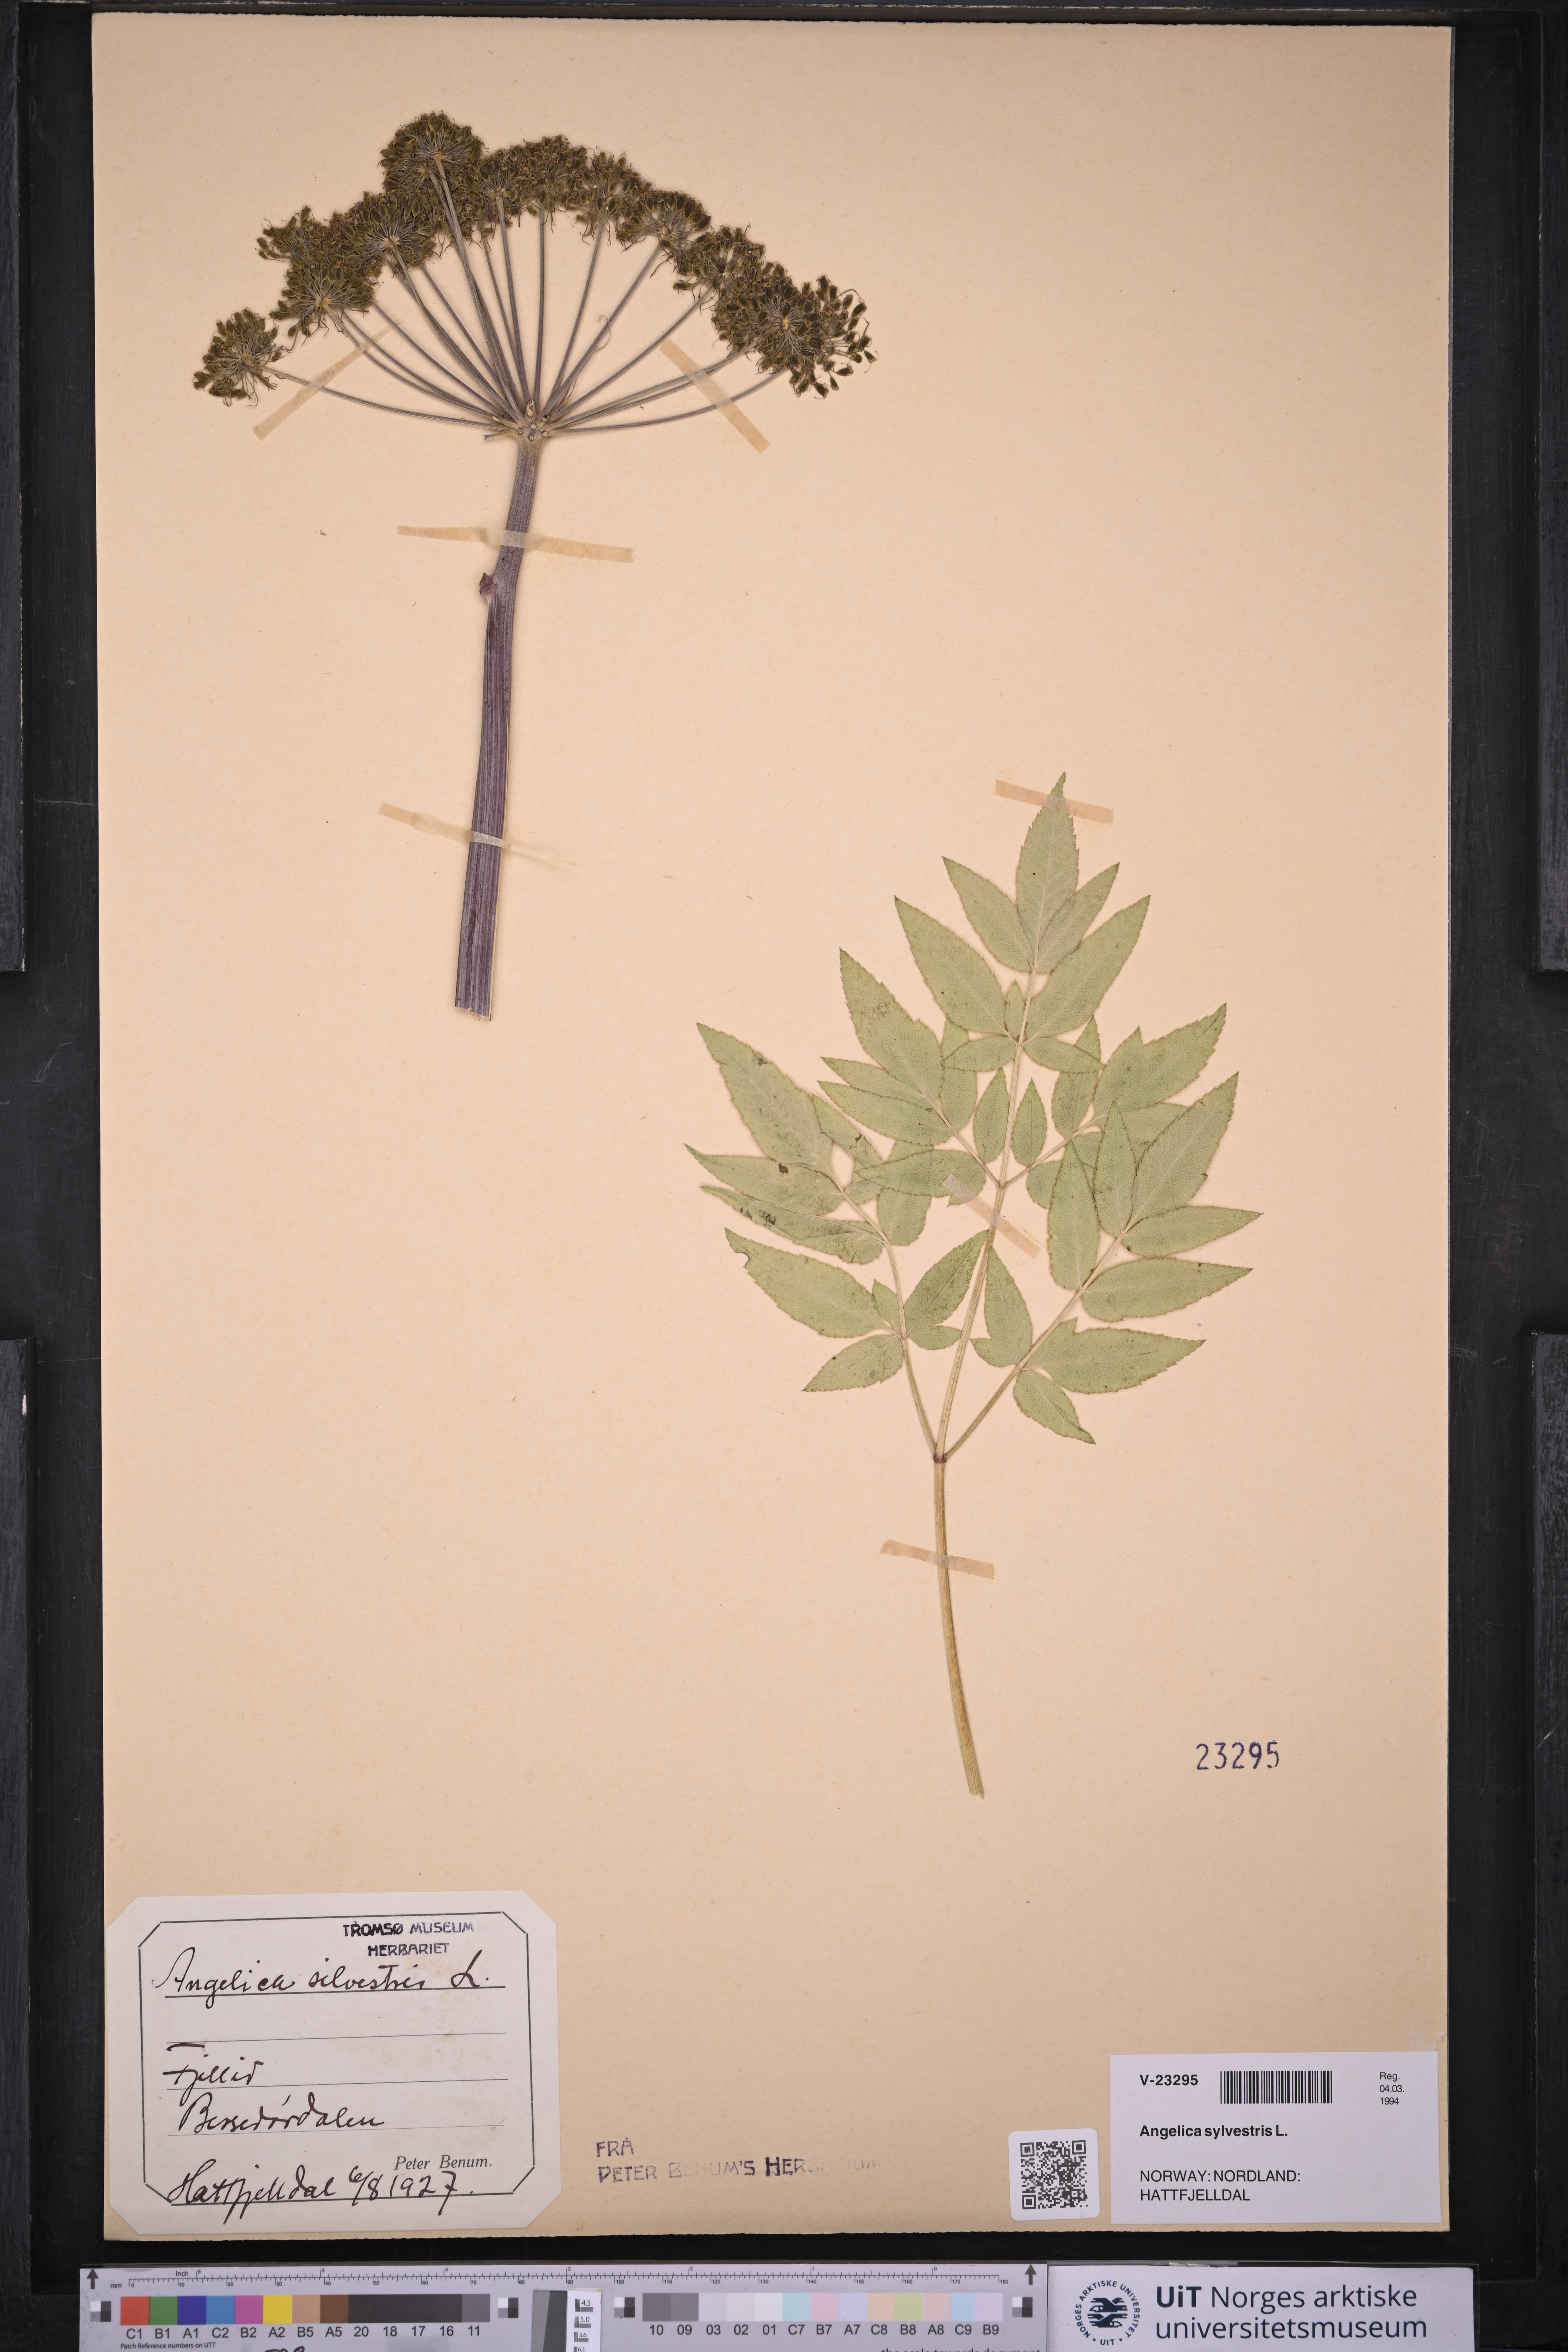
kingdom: Plantae
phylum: Tracheophyta
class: Magnoliopsida
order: Apiales
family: Apiaceae
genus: Angelica
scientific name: Angelica sylvestris
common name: Wild angelica
